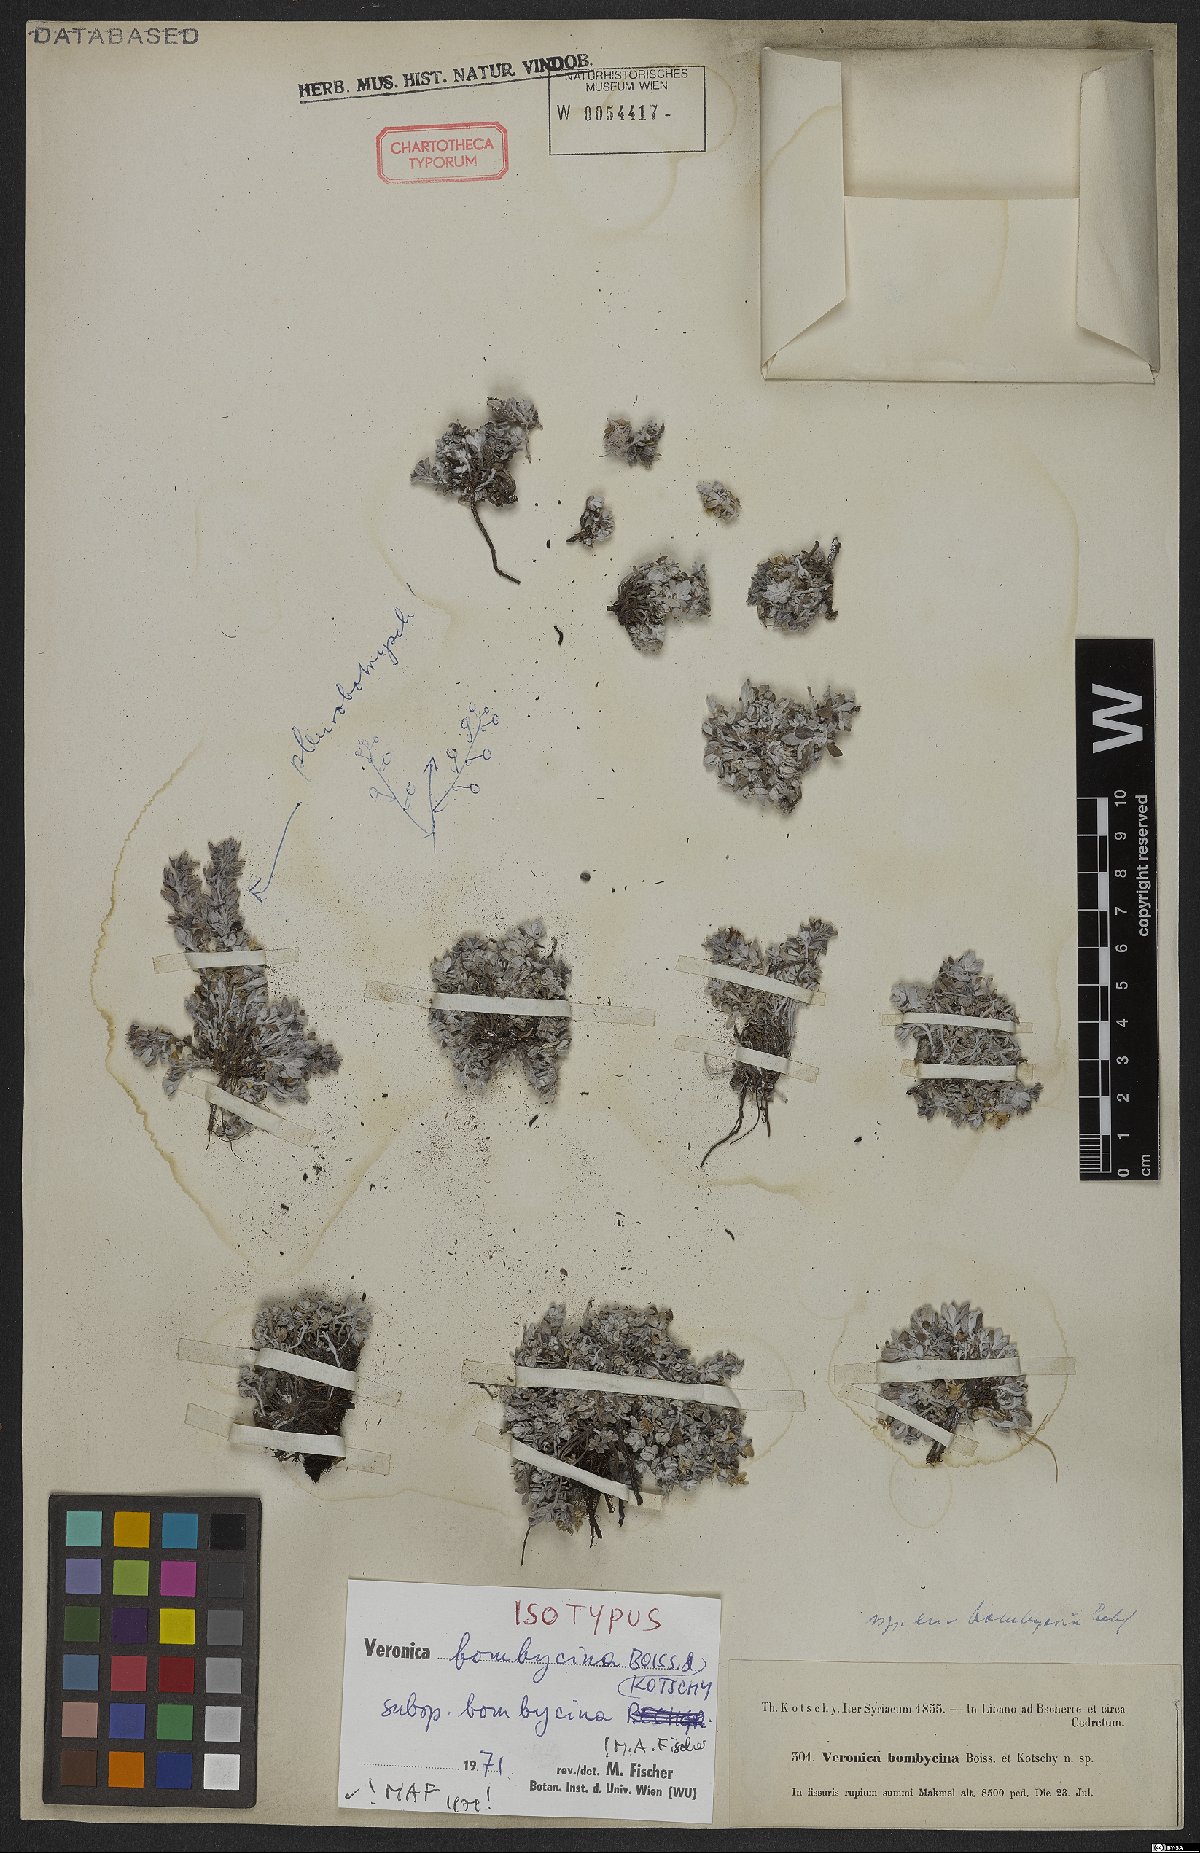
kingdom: Plantae
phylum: Tracheophyta
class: Magnoliopsida
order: Lamiales
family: Plantaginaceae
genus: Veronica
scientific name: Veronica bombycina
